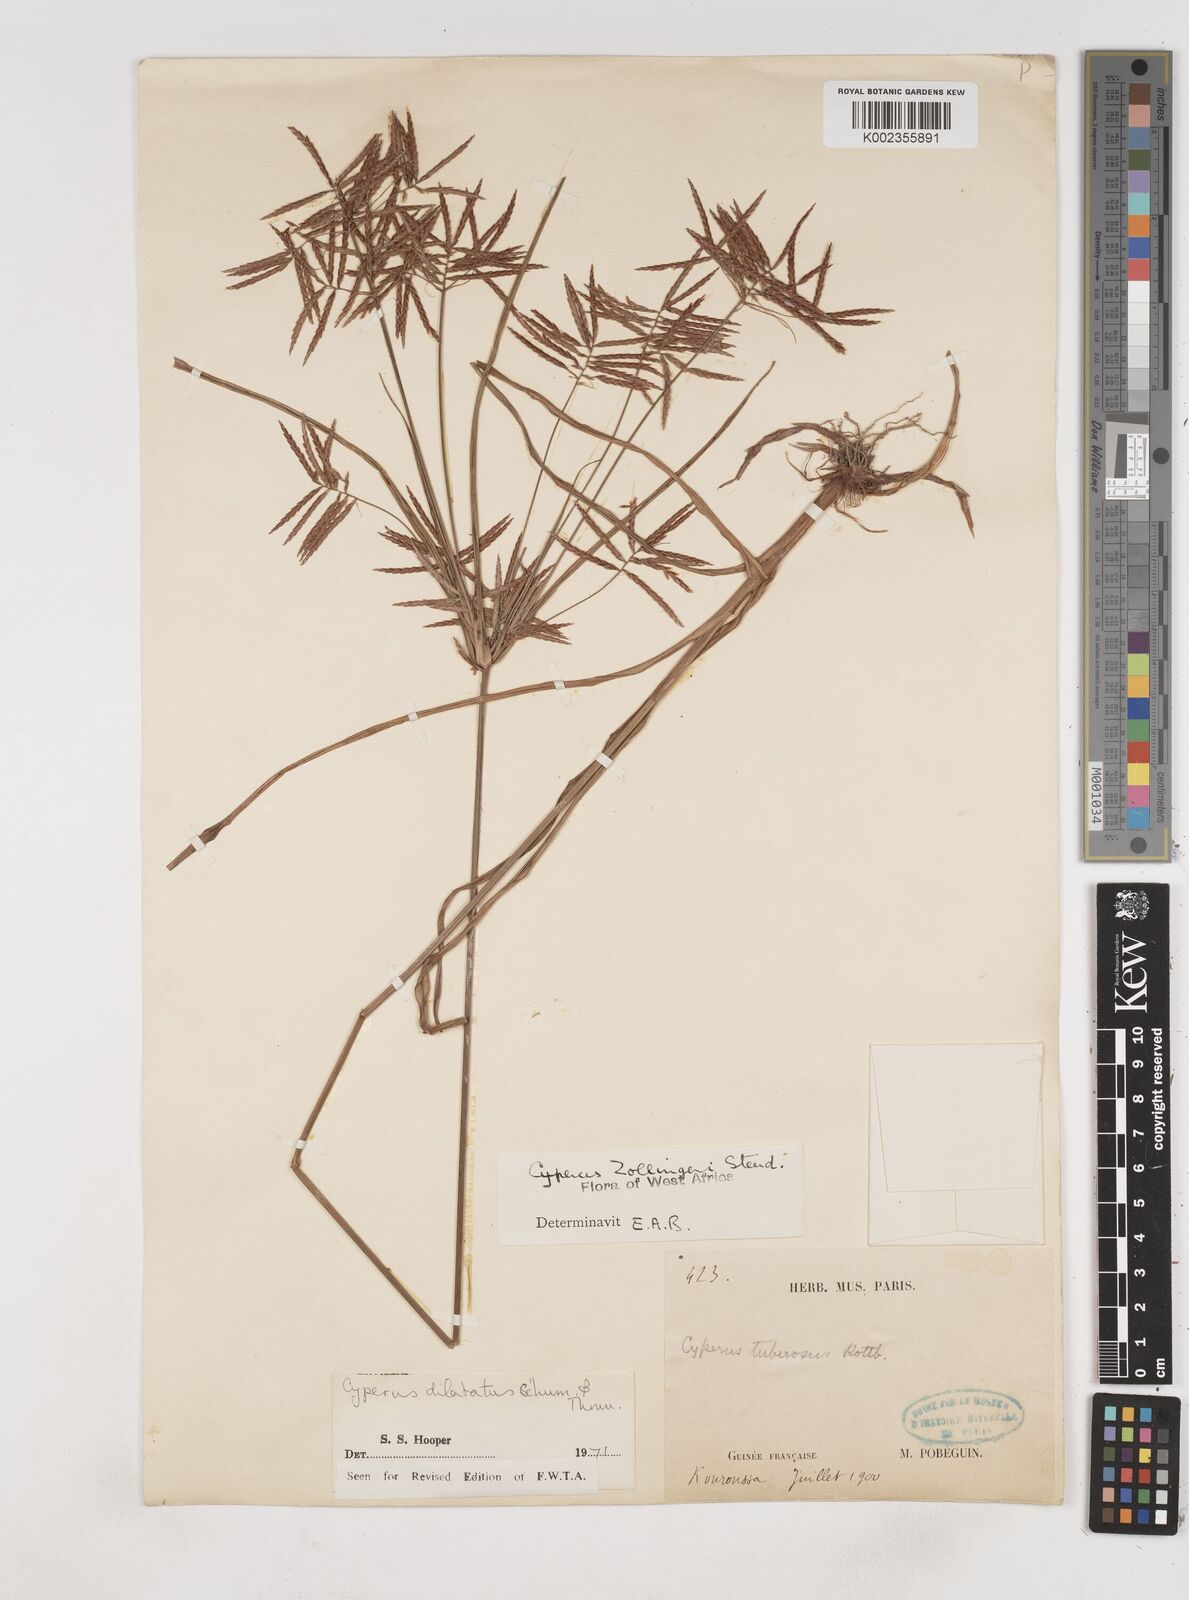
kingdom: Plantae
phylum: Tracheophyta
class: Liliopsida
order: Poales
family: Cyperaceae
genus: Cyperus
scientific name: Cyperus dilatatus
